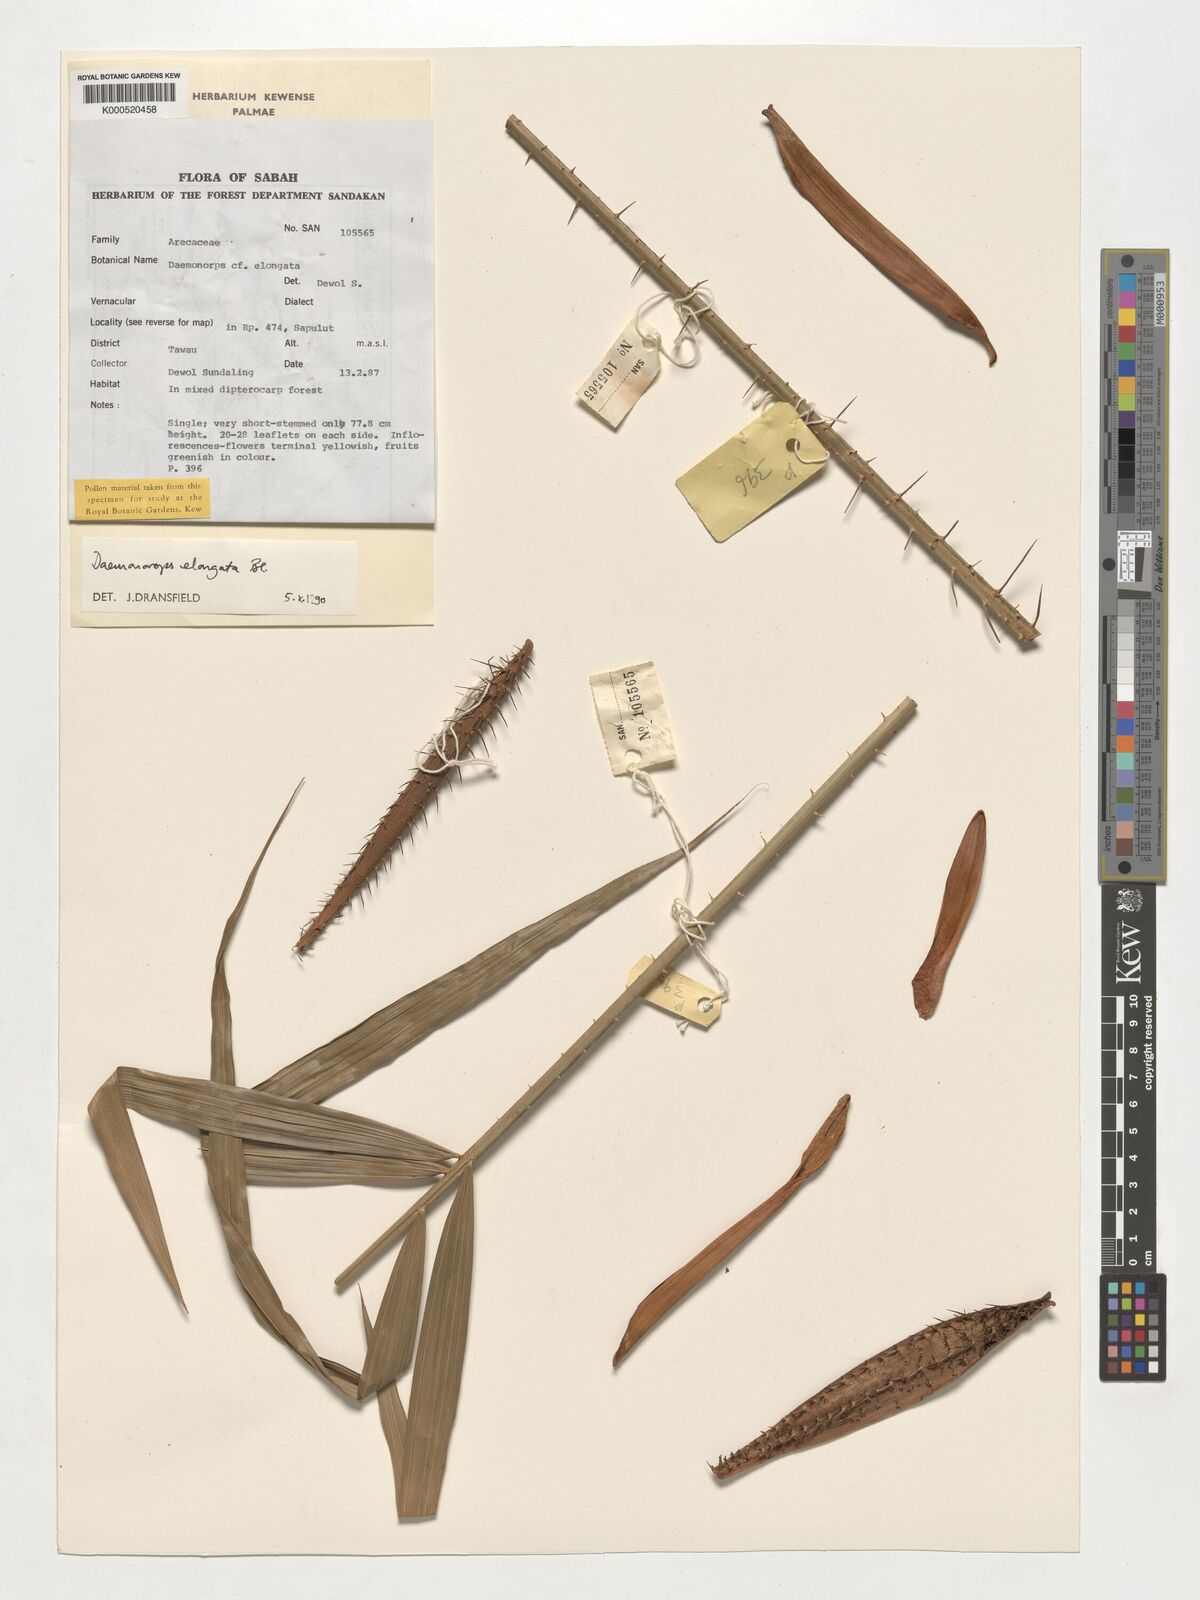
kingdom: Plantae
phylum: Tracheophyta
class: Liliopsida
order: Arecales
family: Arecaceae
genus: Calamus
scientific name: Calamus oblongus
